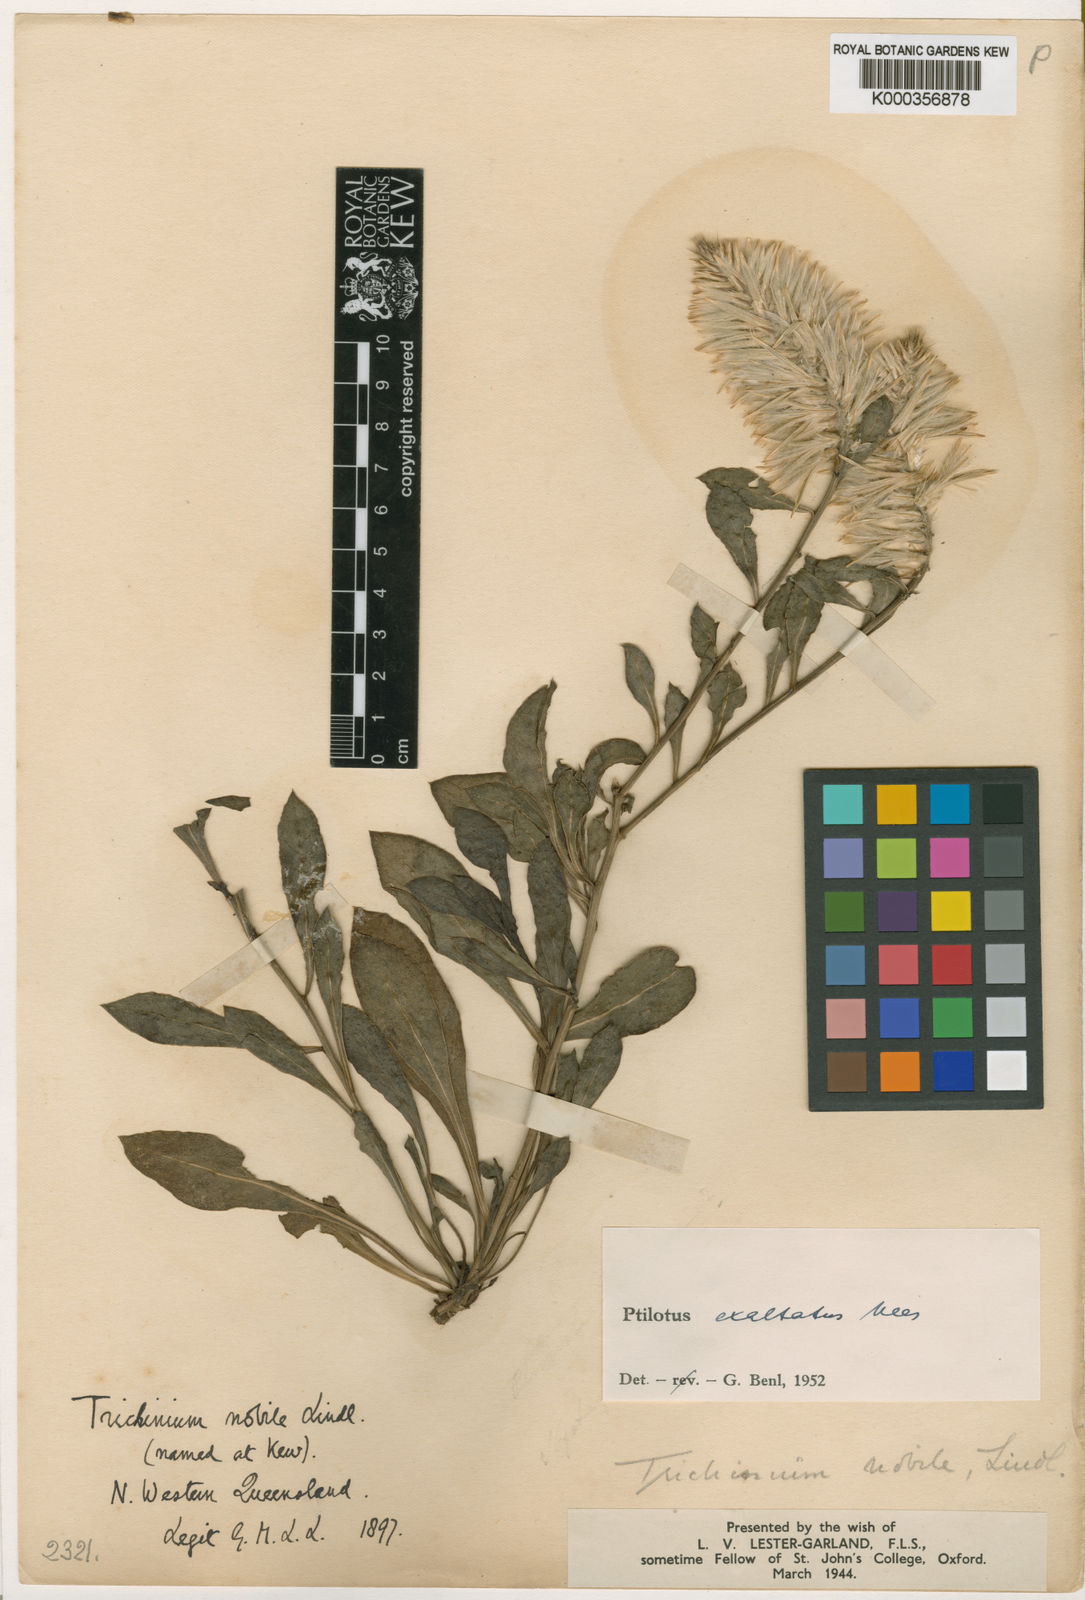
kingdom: Plantae
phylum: Tracheophyta
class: Magnoliopsida
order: Caryophyllales
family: Amaranthaceae
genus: Ptilotus
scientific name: Ptilotus exaltatus
